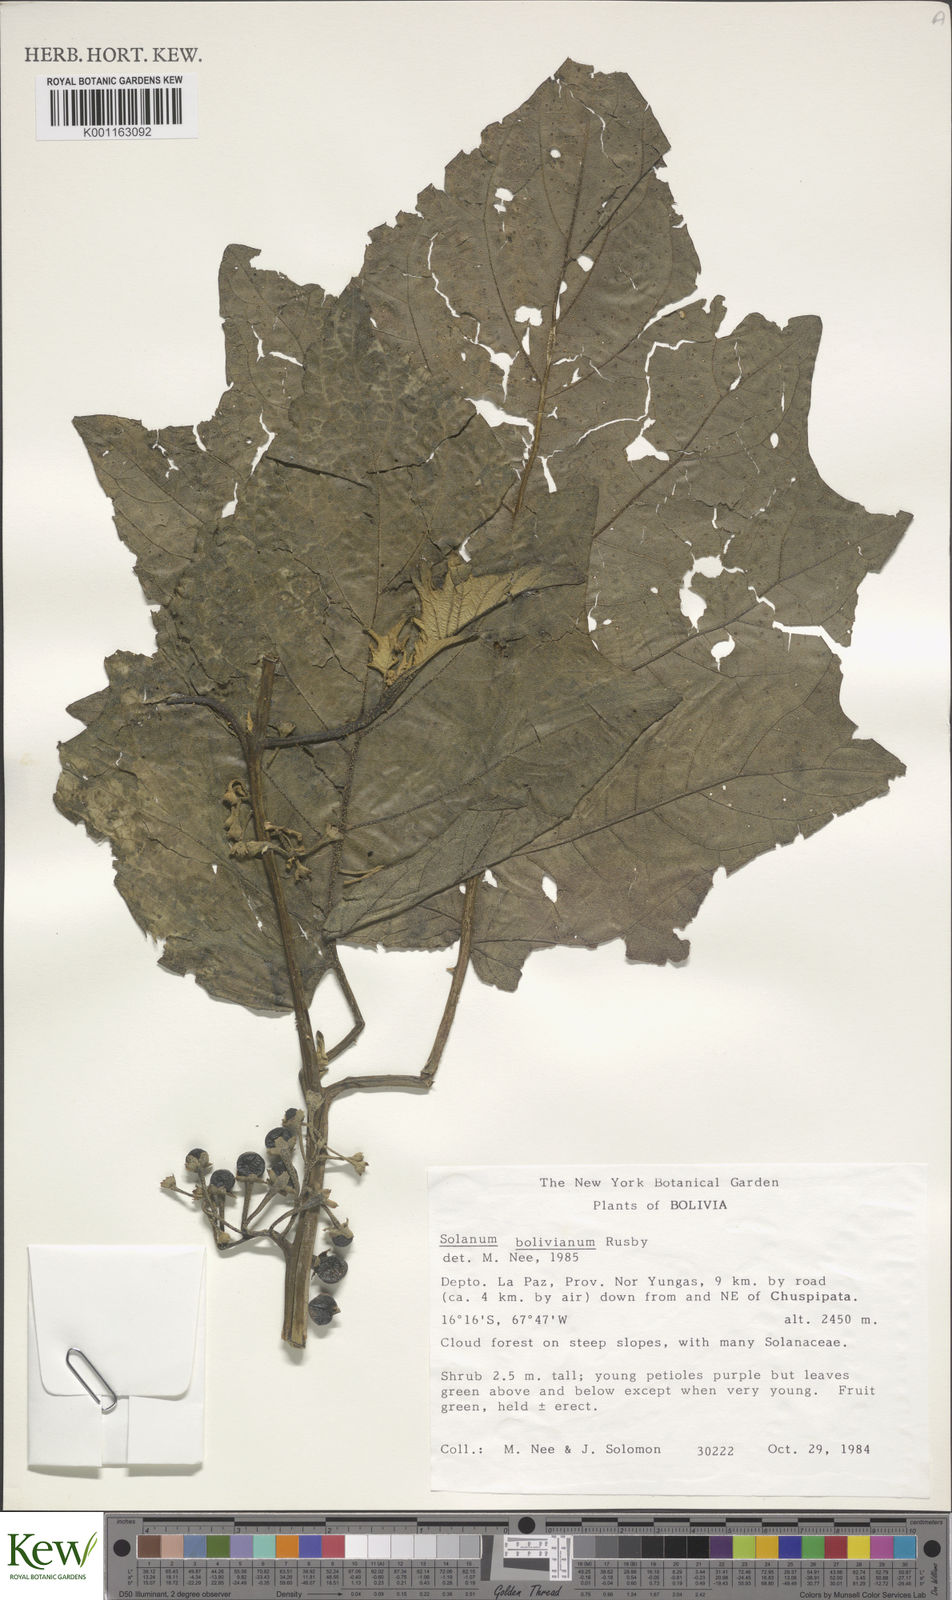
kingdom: Plantae
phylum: Tracheophyta
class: Magnoliopsida
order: Solanales
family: Solanaceae
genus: Solanum
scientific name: Solanum bolivianum
